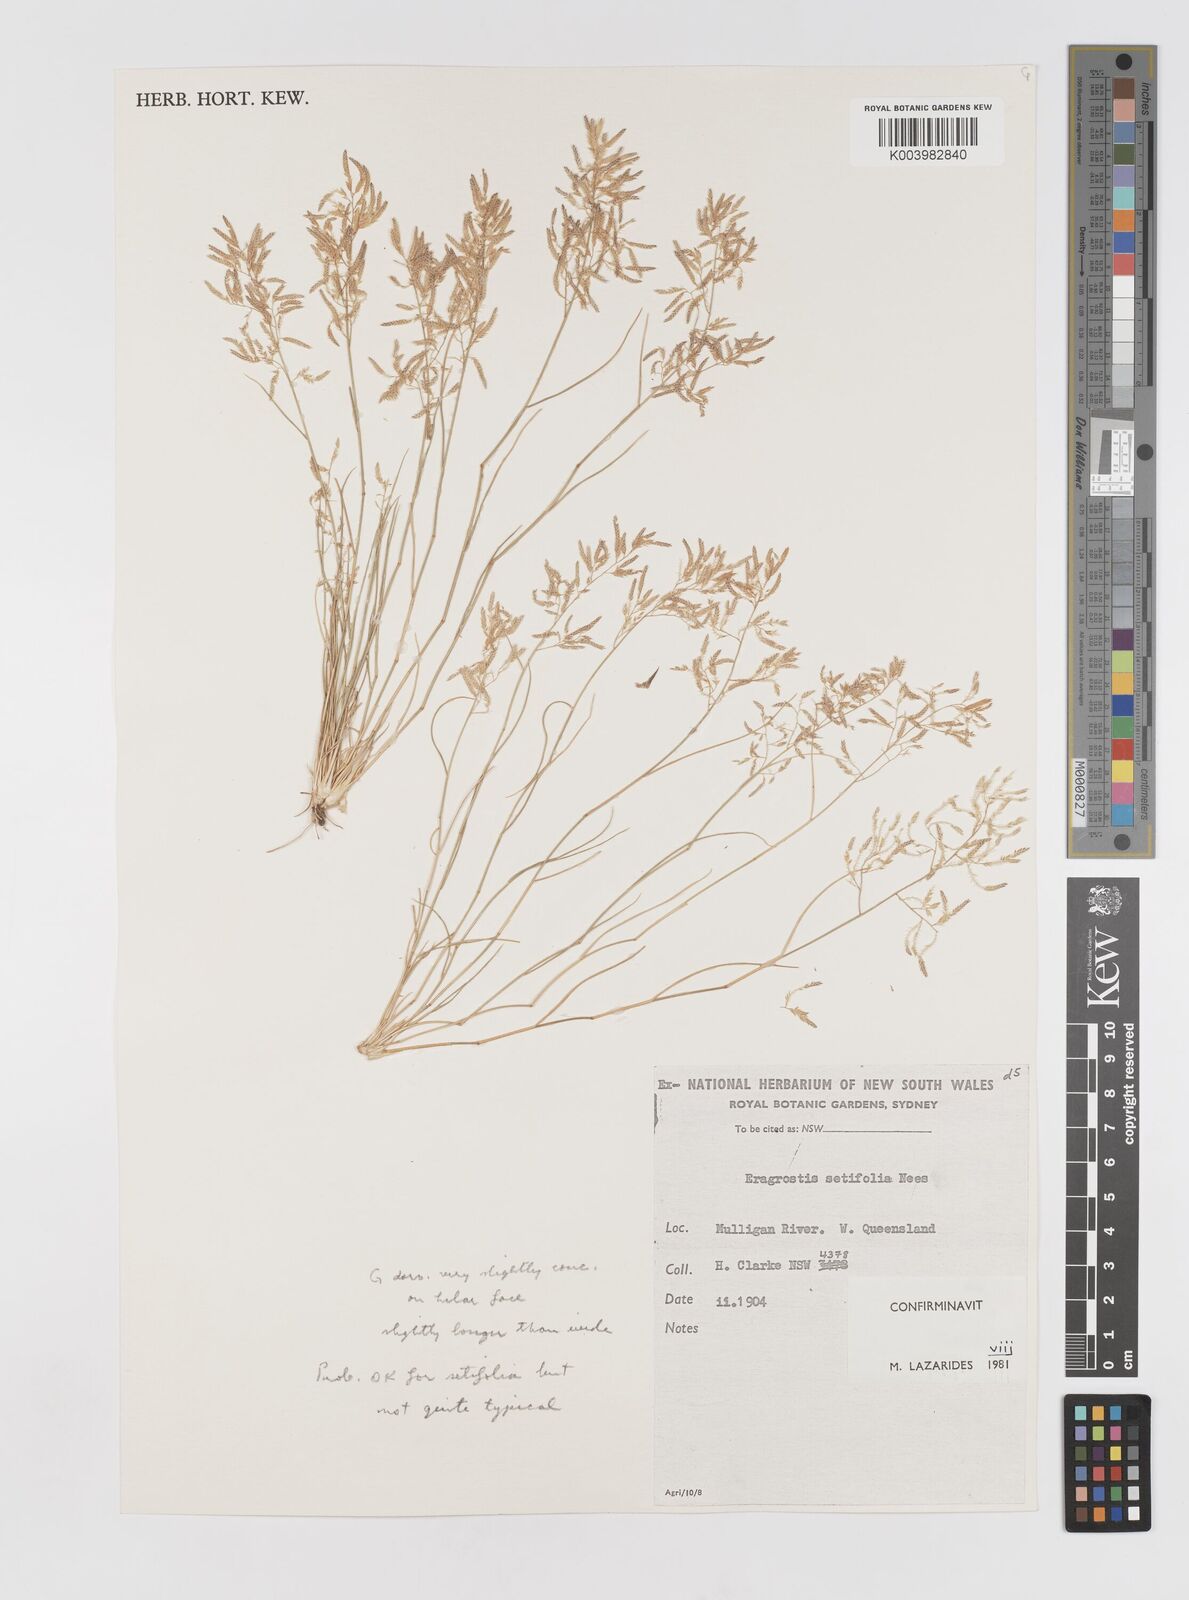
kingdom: Plantae
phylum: Tracheophyta
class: Liliopsida
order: Poales
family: Poaceae
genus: Eragrostis
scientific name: Eragrostis setifolia
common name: Bristleleaf lovegrass
